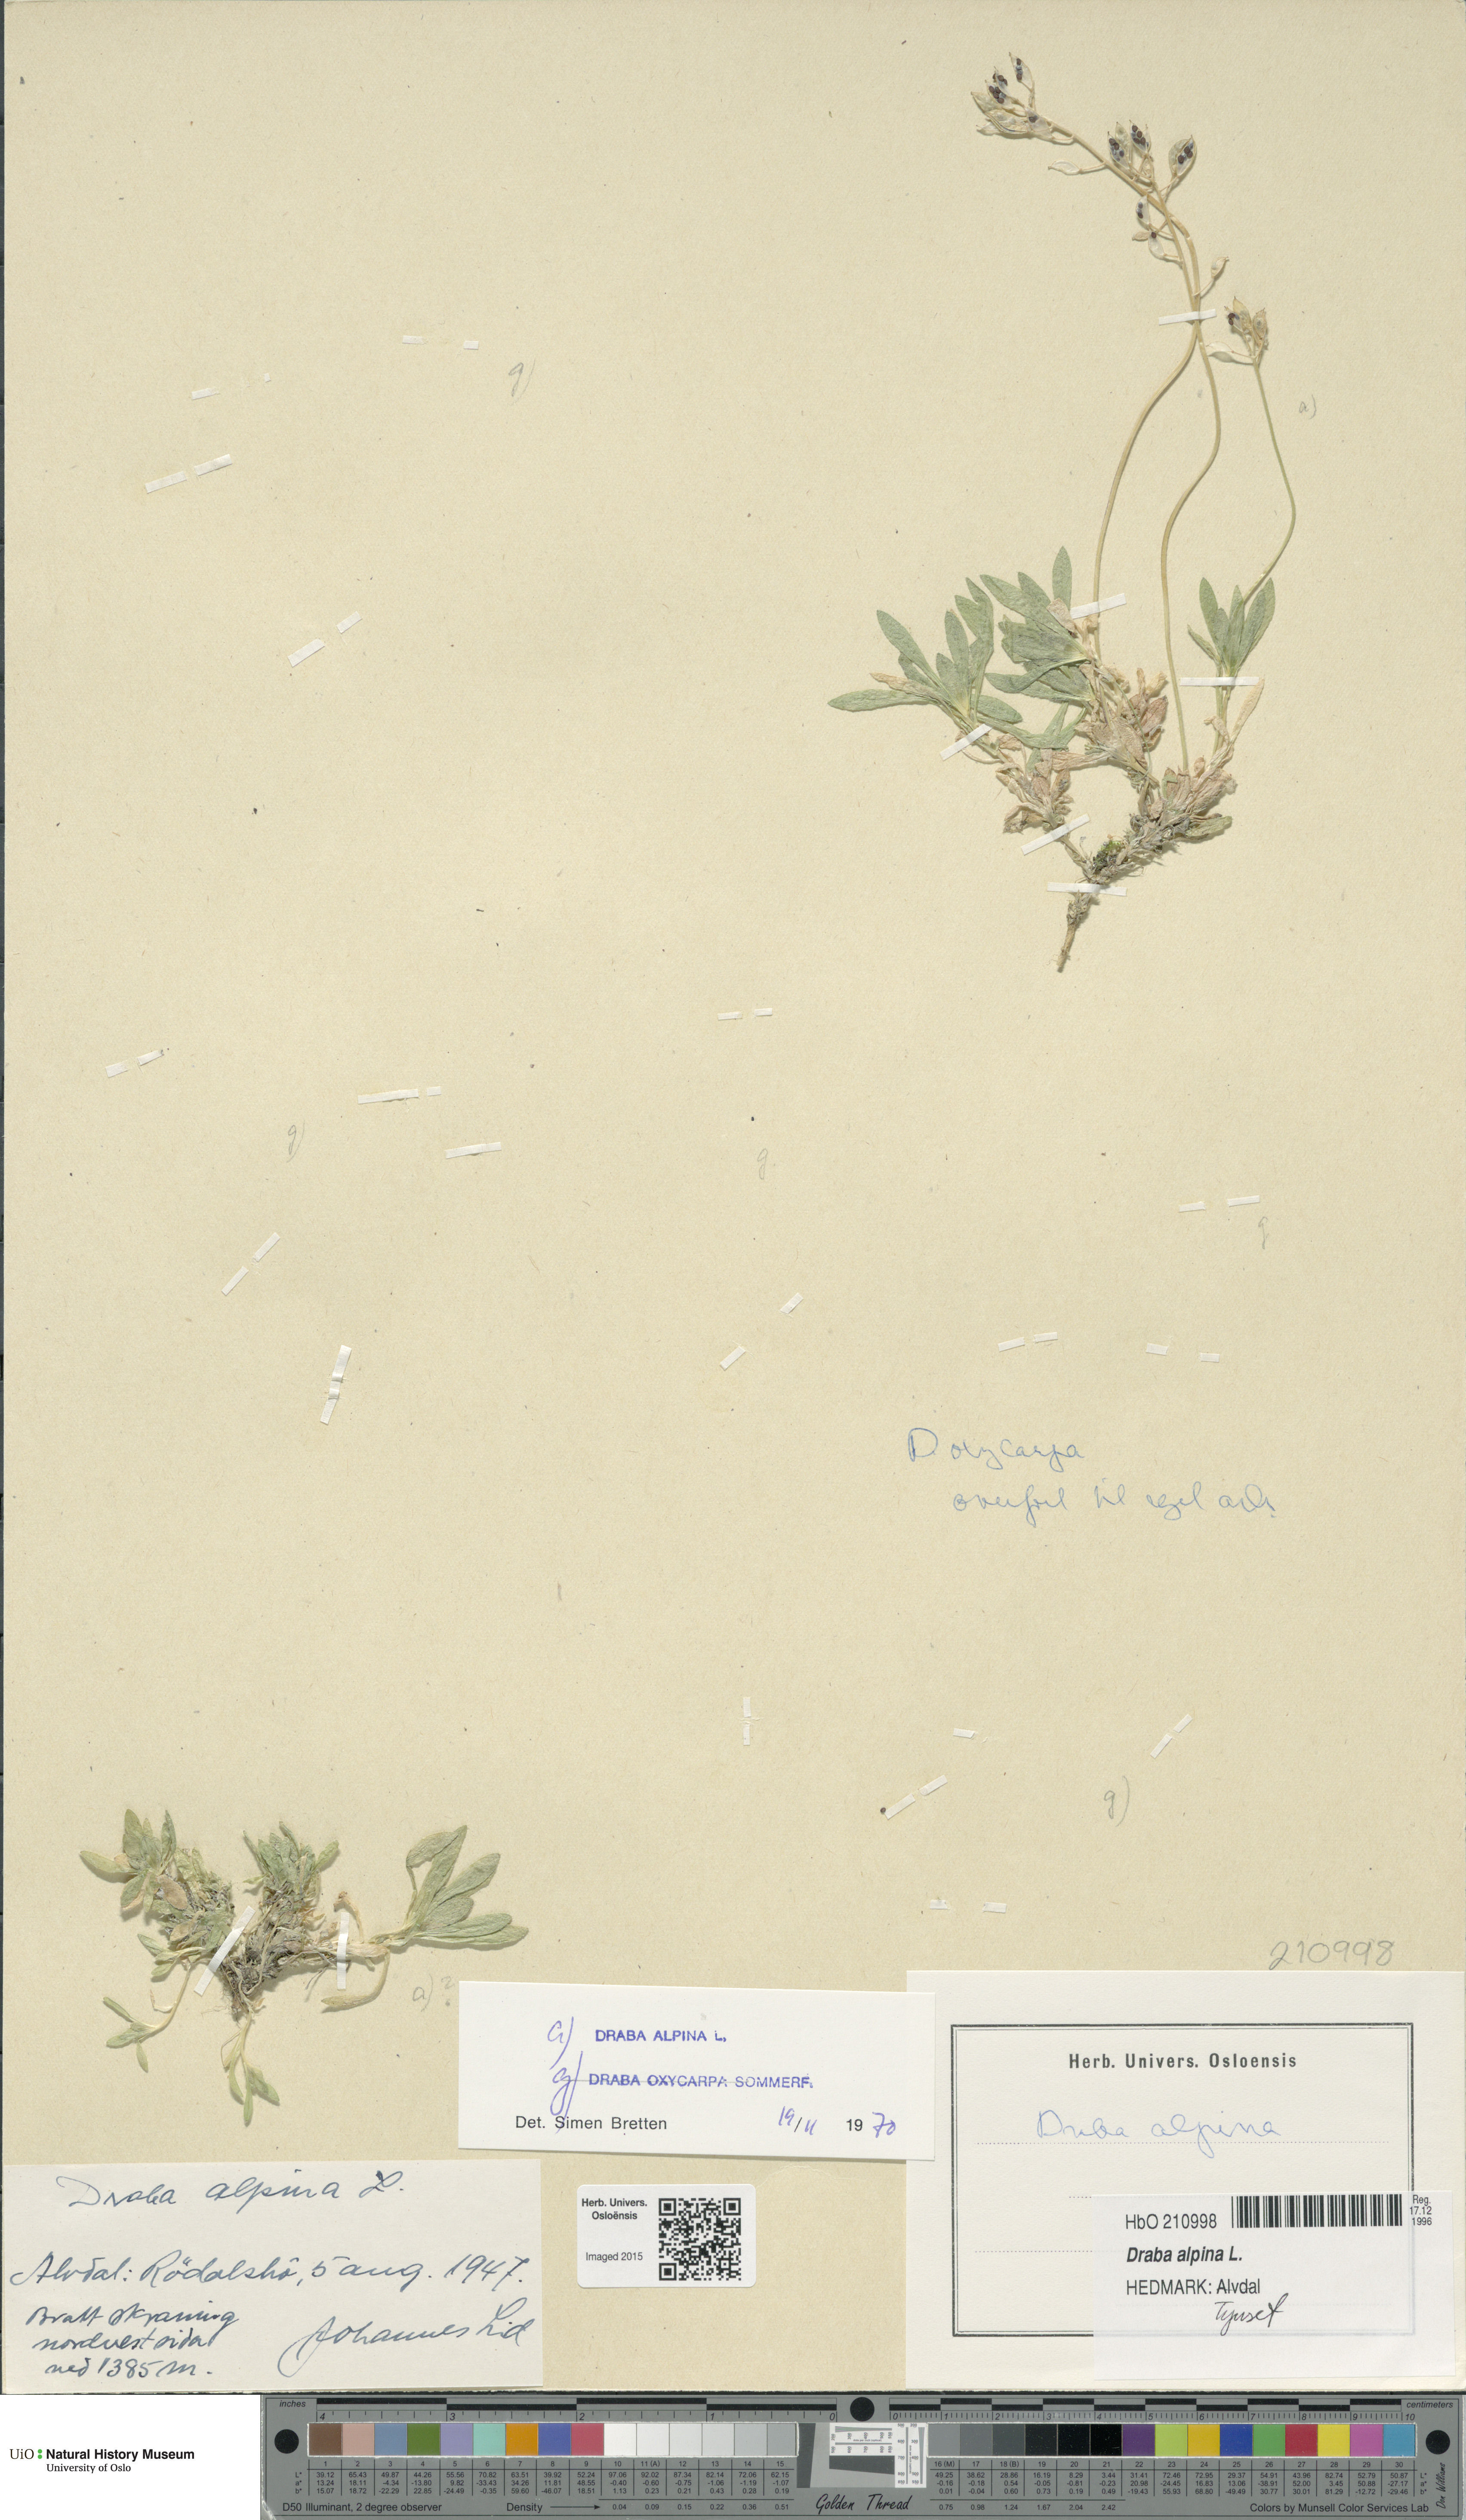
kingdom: Plantae
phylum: Tracheophyta
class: Magnoliopsida
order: Brassicales
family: Brassicaceae
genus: Draba
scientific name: Draba alpina
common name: Alpine draba
